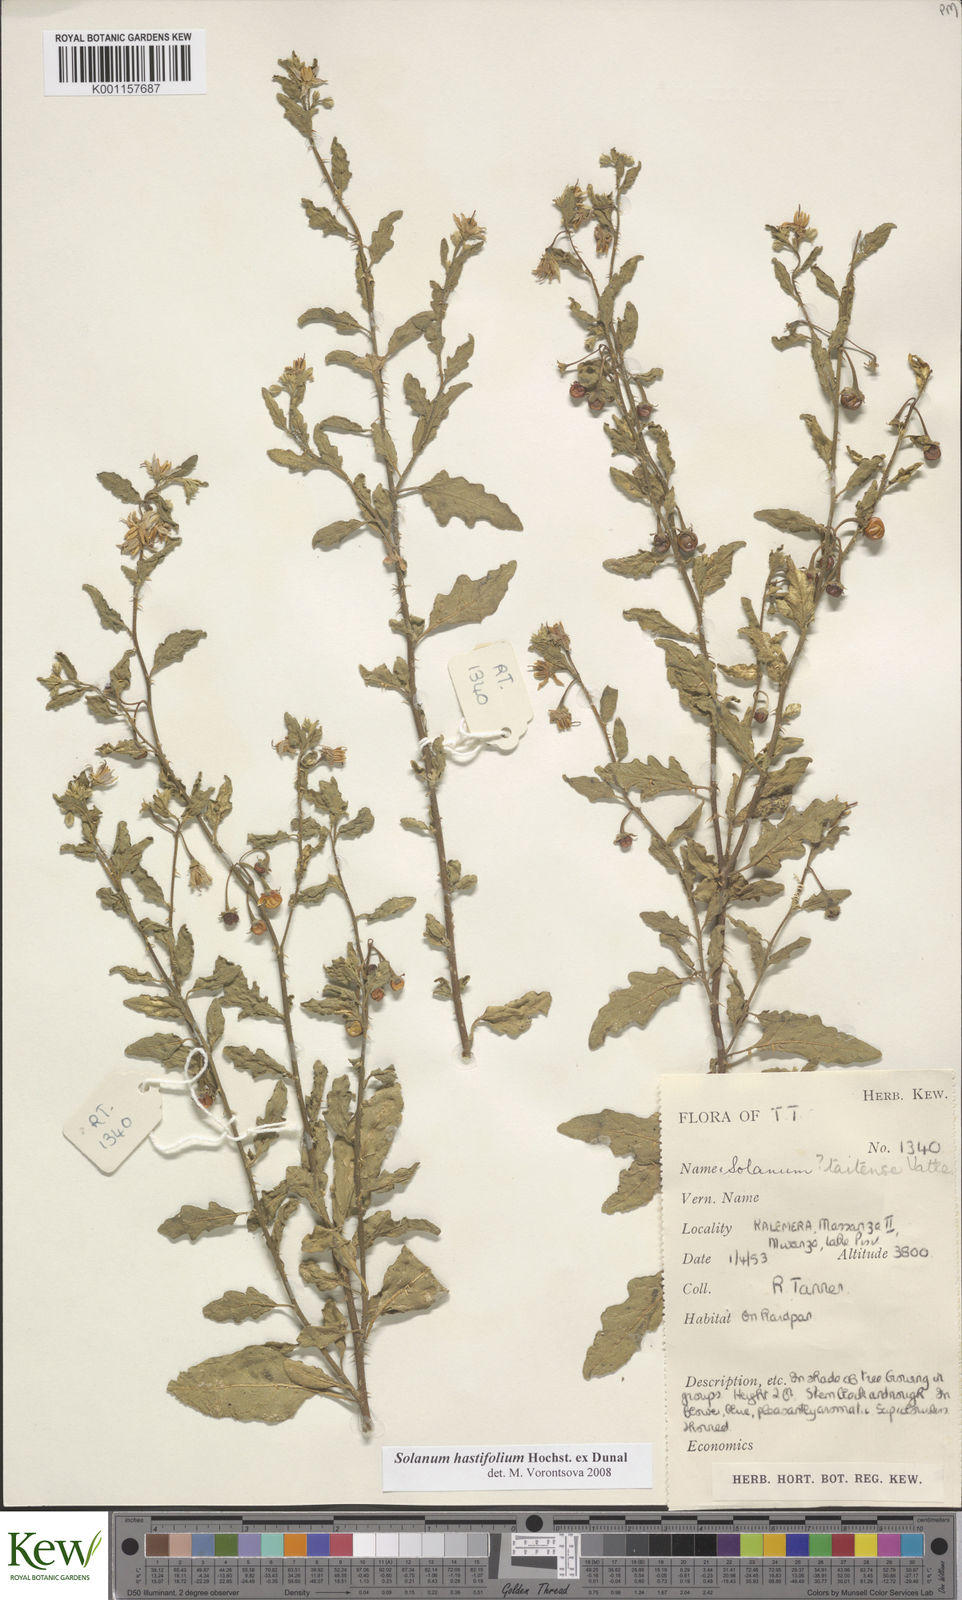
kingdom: Plantae
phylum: Tracheophyta
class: Magnoliopsida
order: Solanales
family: Solanaceae
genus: Solanum
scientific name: Solanum hastifolium
